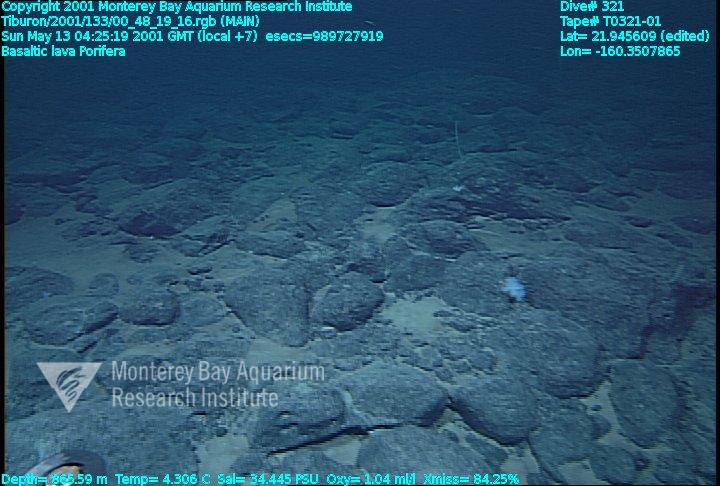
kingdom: Animalia
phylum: Porifera
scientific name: Porifera
